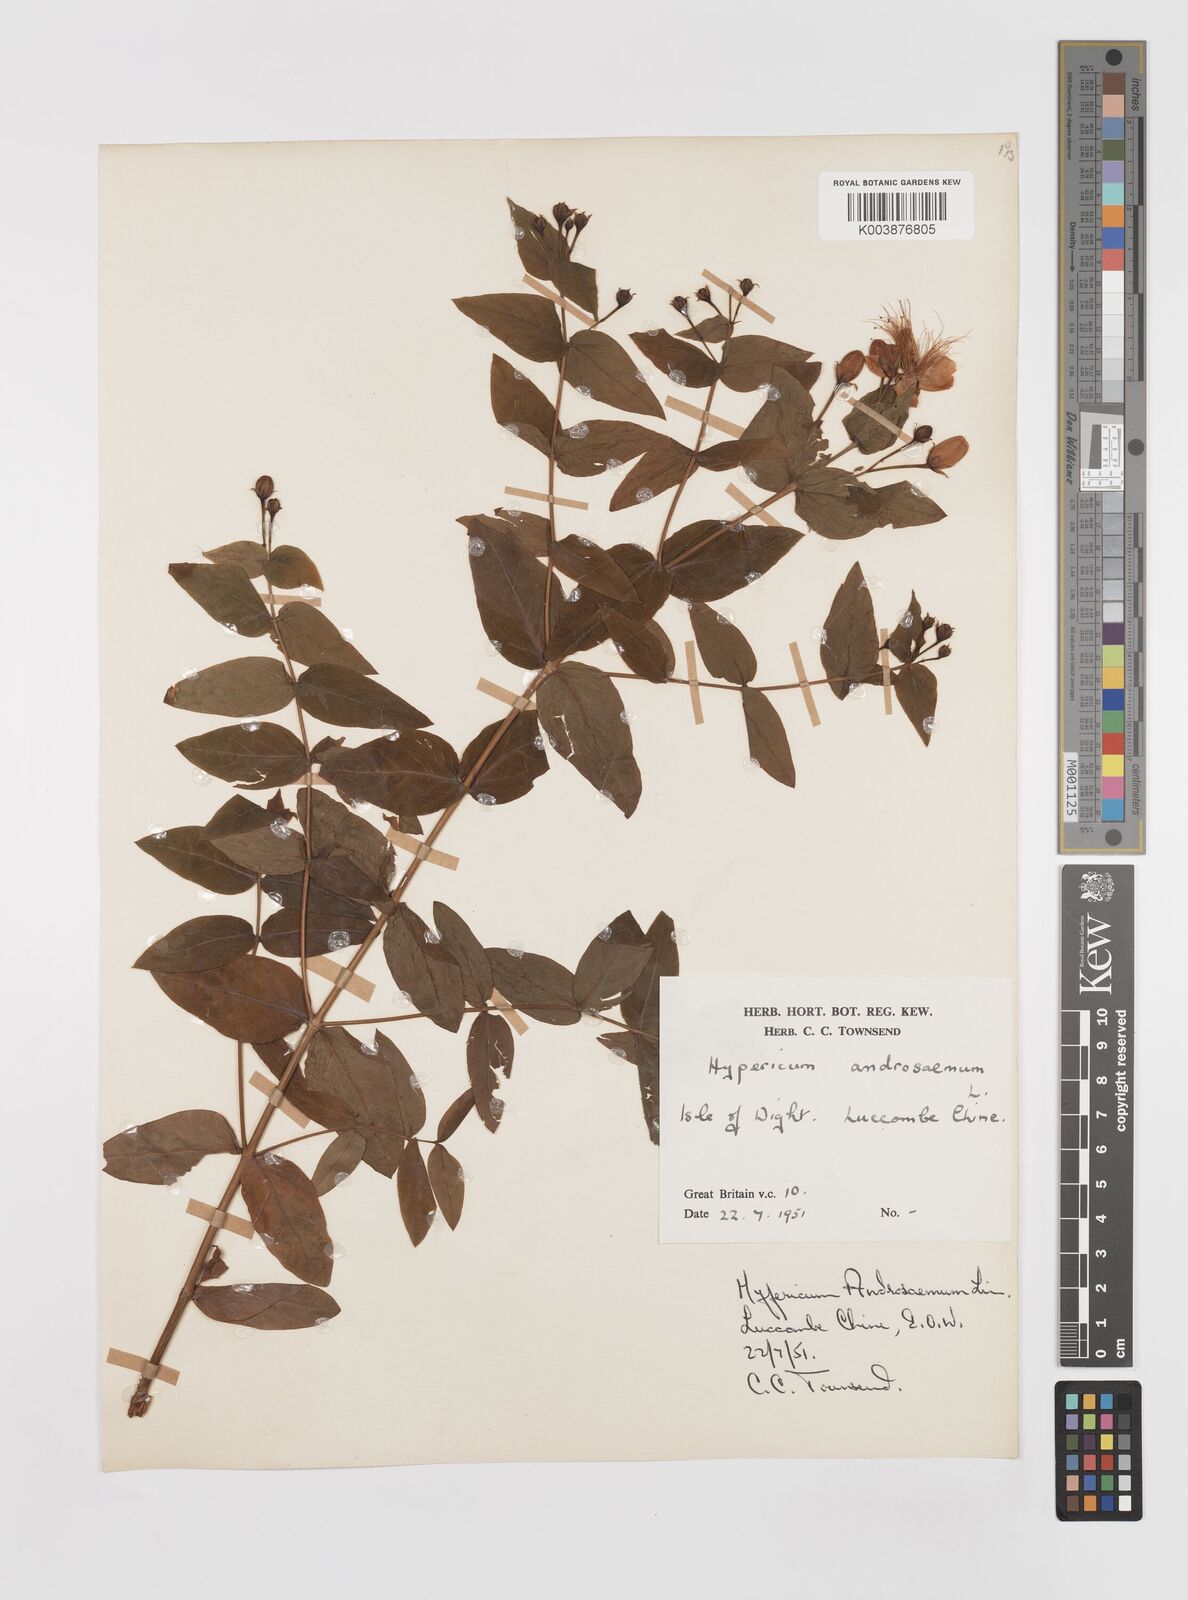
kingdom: Plantae
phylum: Tracheophyta
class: Magnoliopsida
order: Malpighiales
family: Hypericaceae
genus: Hypericum
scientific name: Hypericum androsaemum
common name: Sweet-amber
